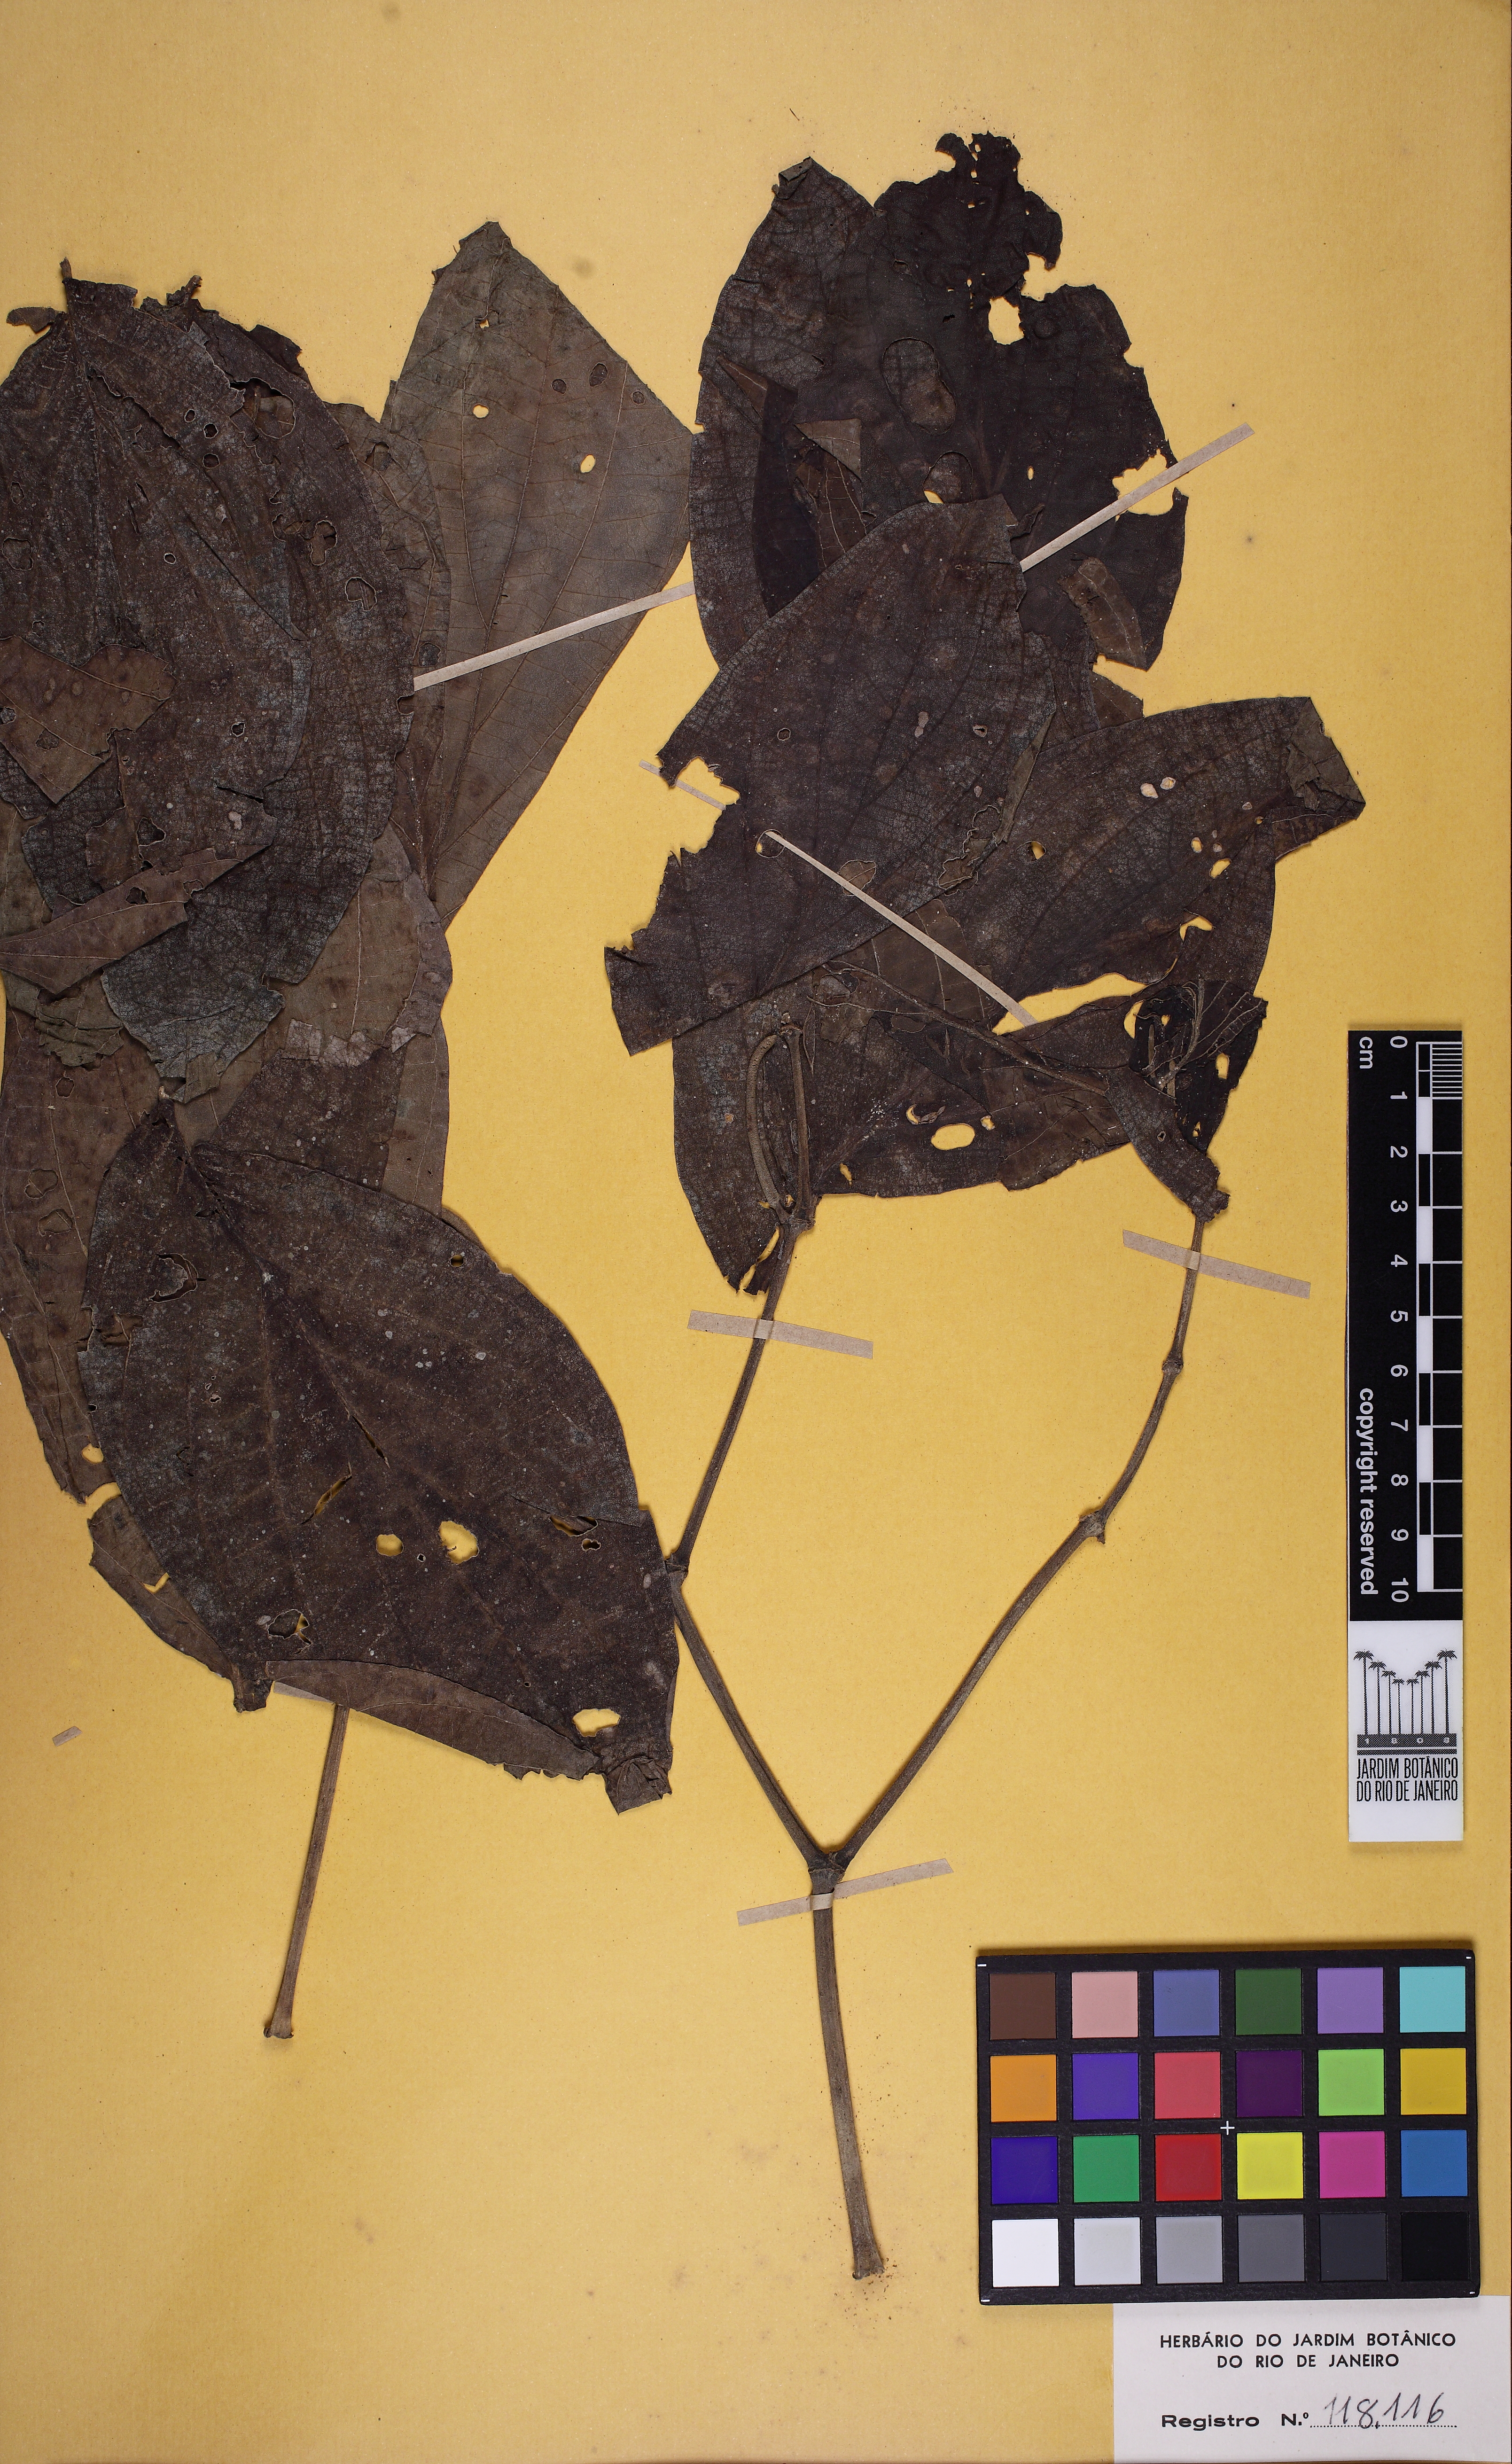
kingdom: Plantae
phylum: Tracheophyta
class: Magnoliopsida
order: Piperales
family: Piperaceae
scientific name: Piperaceae
